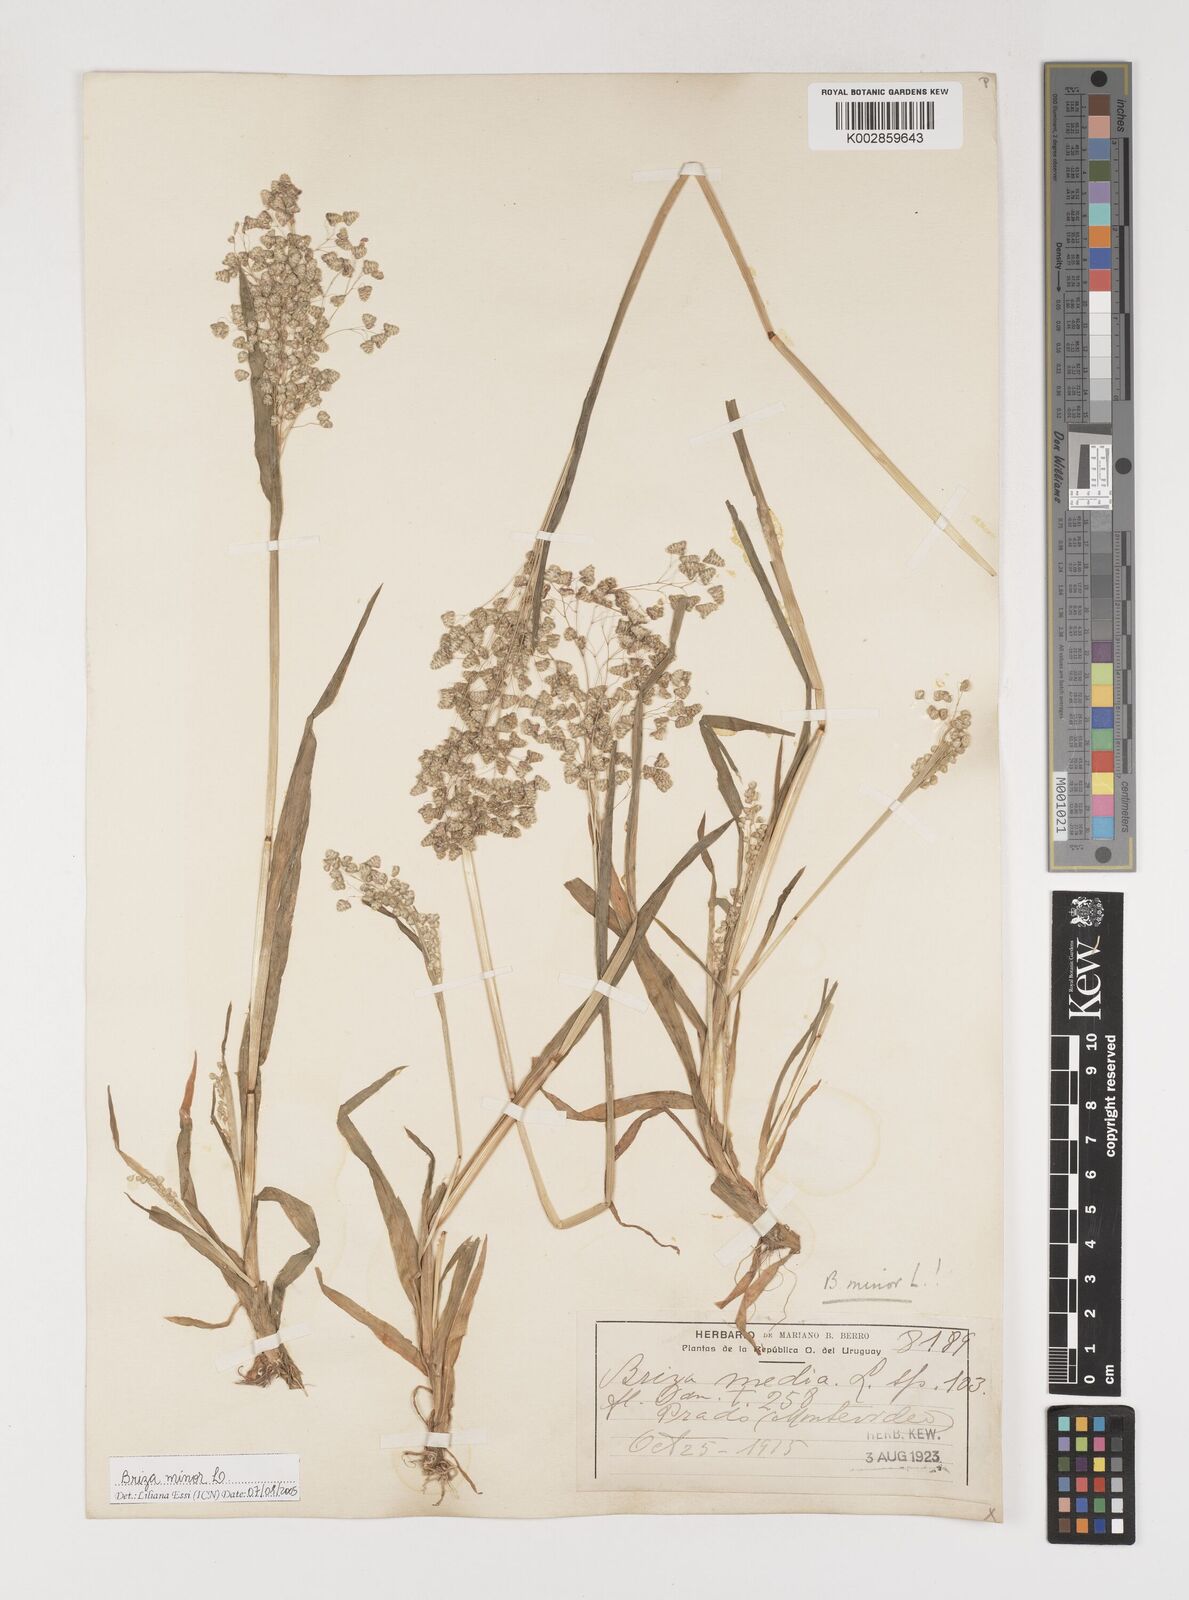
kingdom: Plantae
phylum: Tracheophyta
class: Liliopsida
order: Poales
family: Poaceae
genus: Briza
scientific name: Briza minor
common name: Lesser quaking-grass
